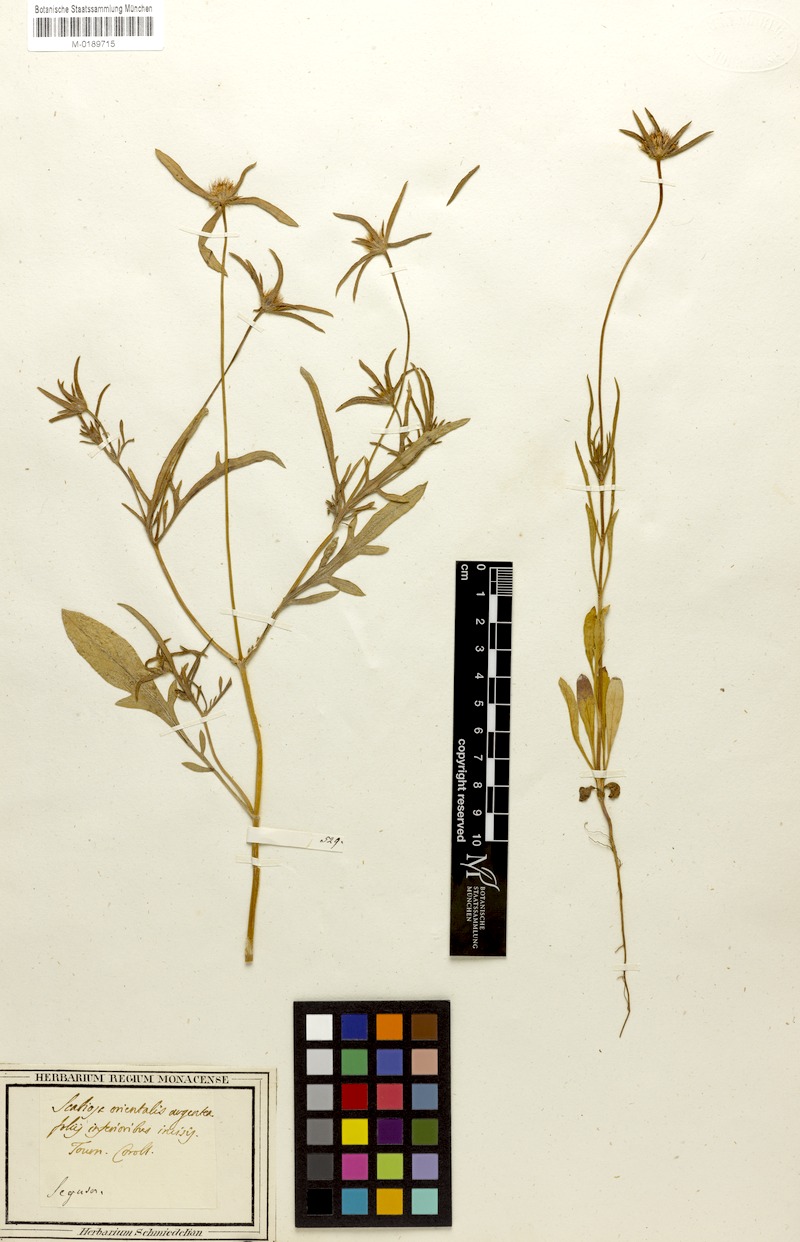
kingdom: Plantae
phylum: Tracheophyta
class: Magnoliopsida
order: Dipsacales
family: Caprifoliaceae
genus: Lomelosia
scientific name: Lomelosia argentea
